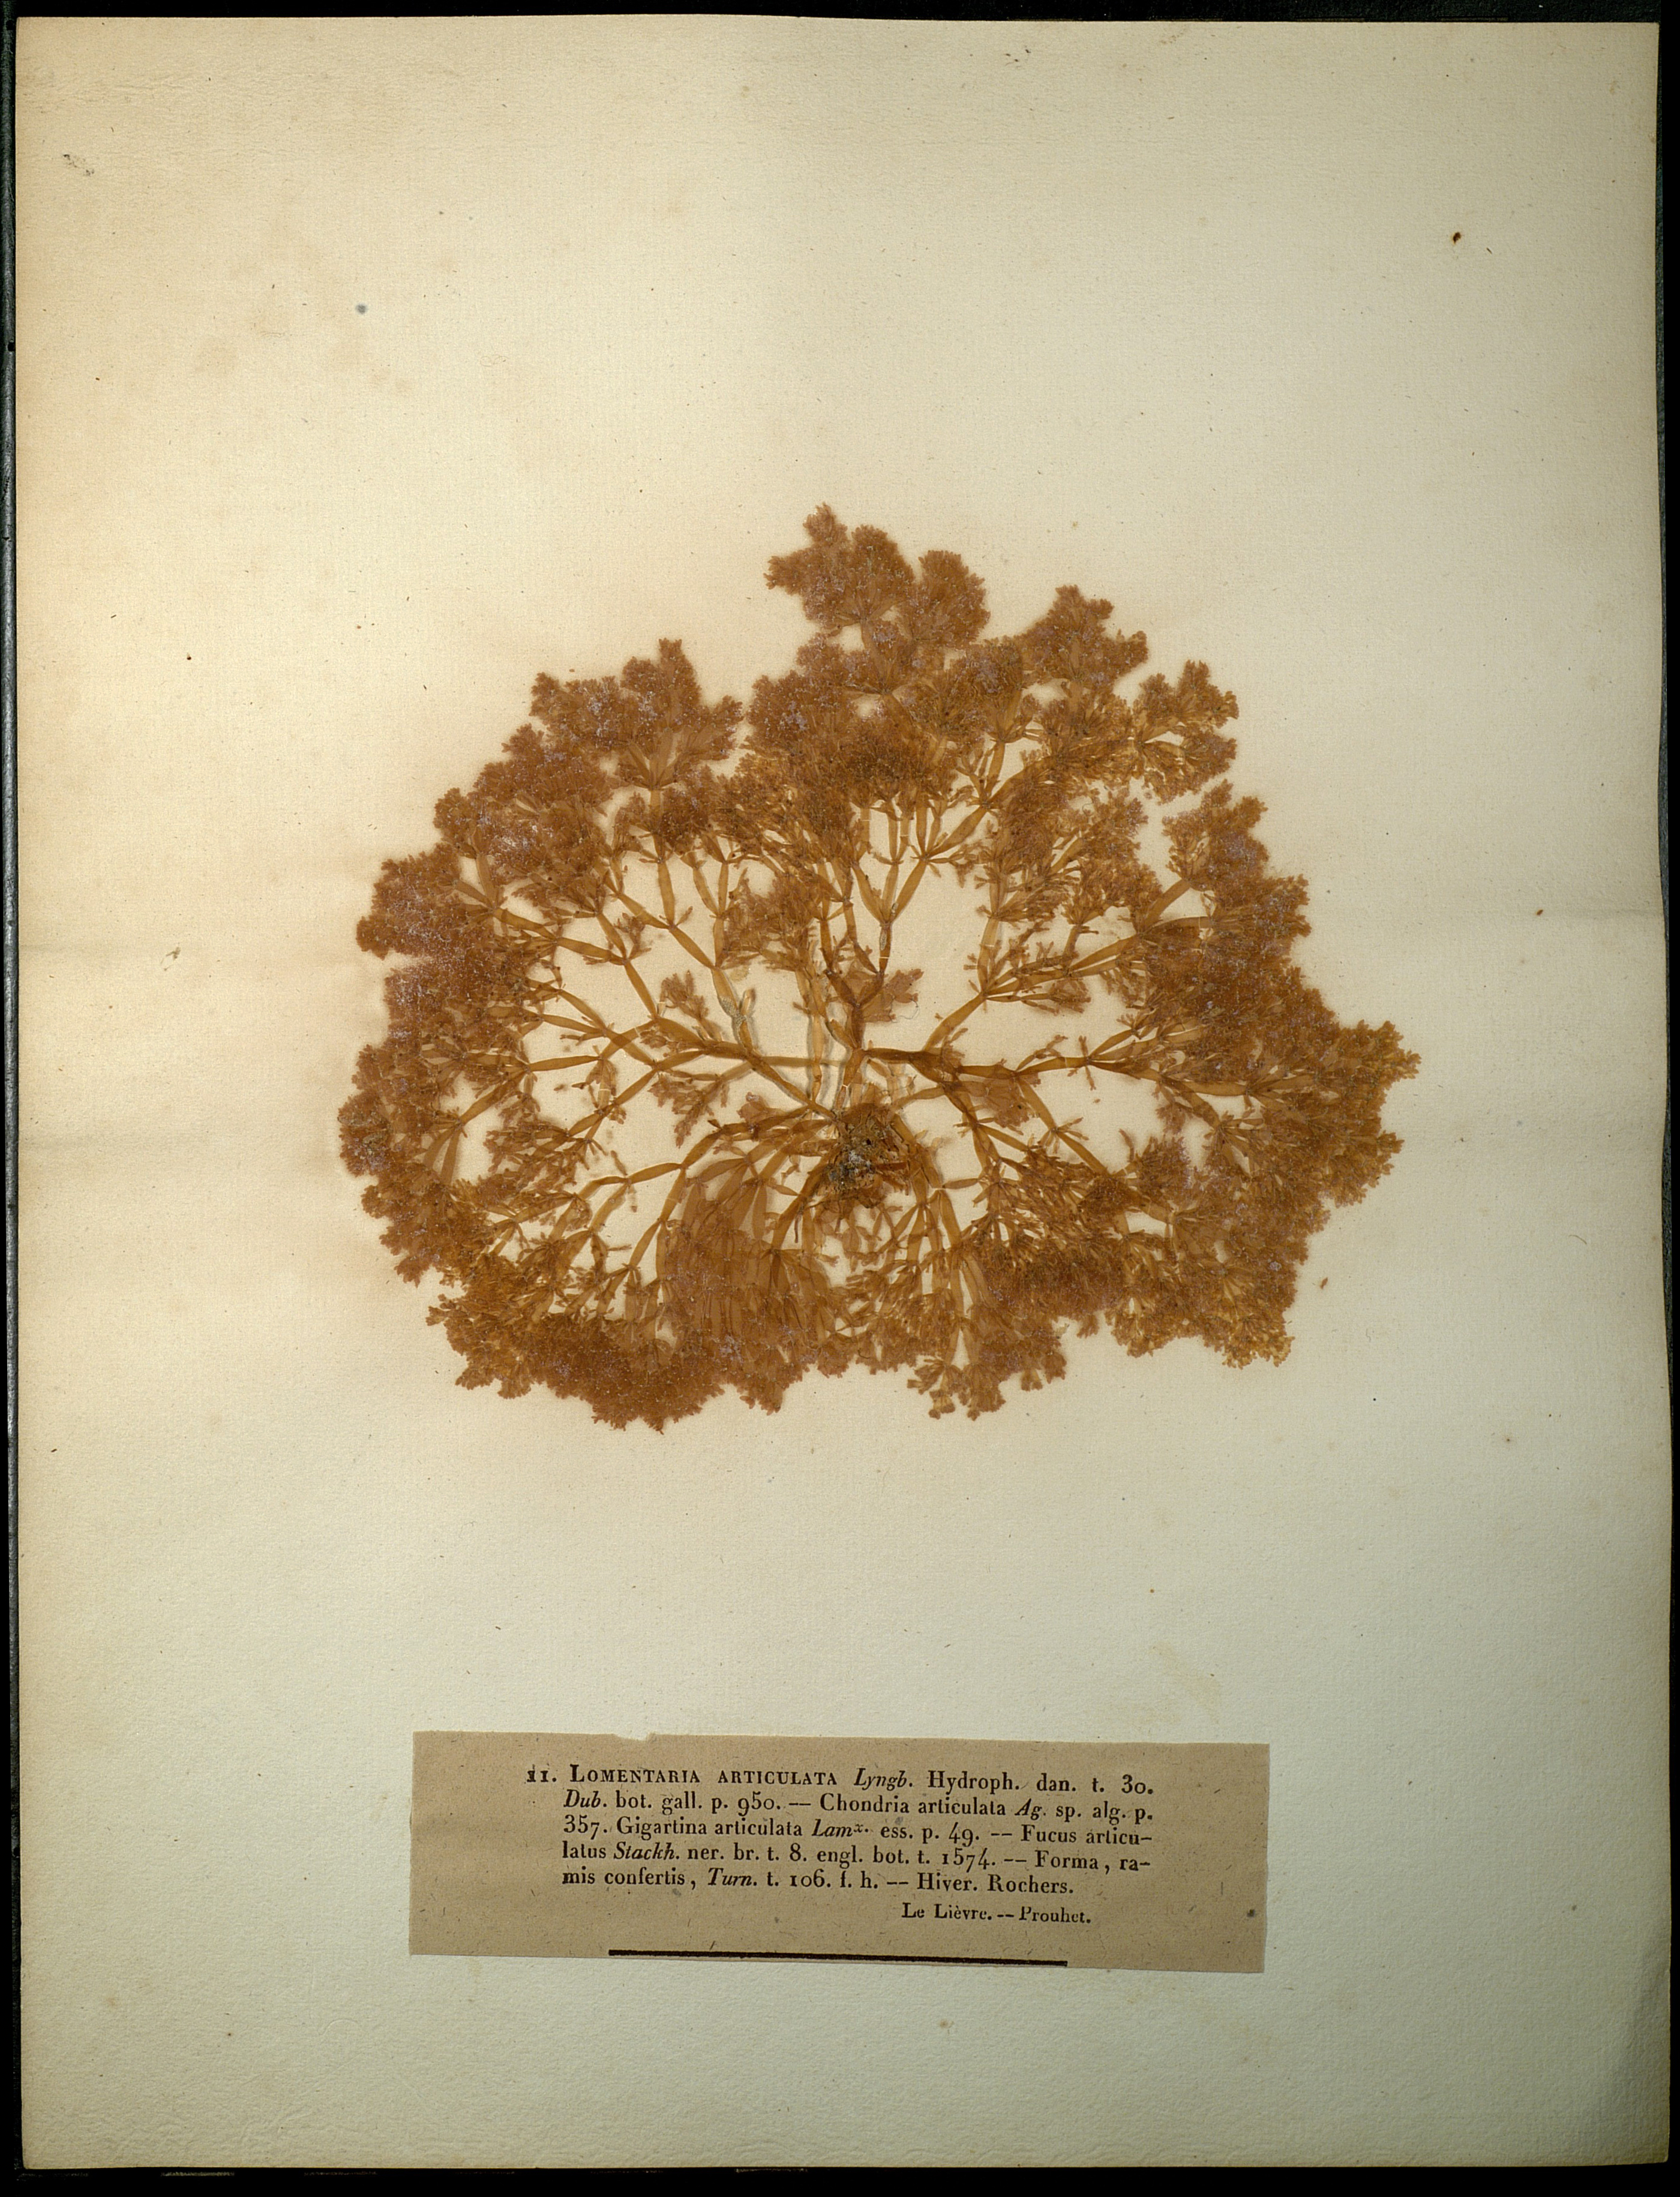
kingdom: Plantae
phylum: Rhodophyta
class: Florideophyceae
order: Rhodymeniales
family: Lomentariaceae
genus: Lomentaria
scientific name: Lomentaria articulata
